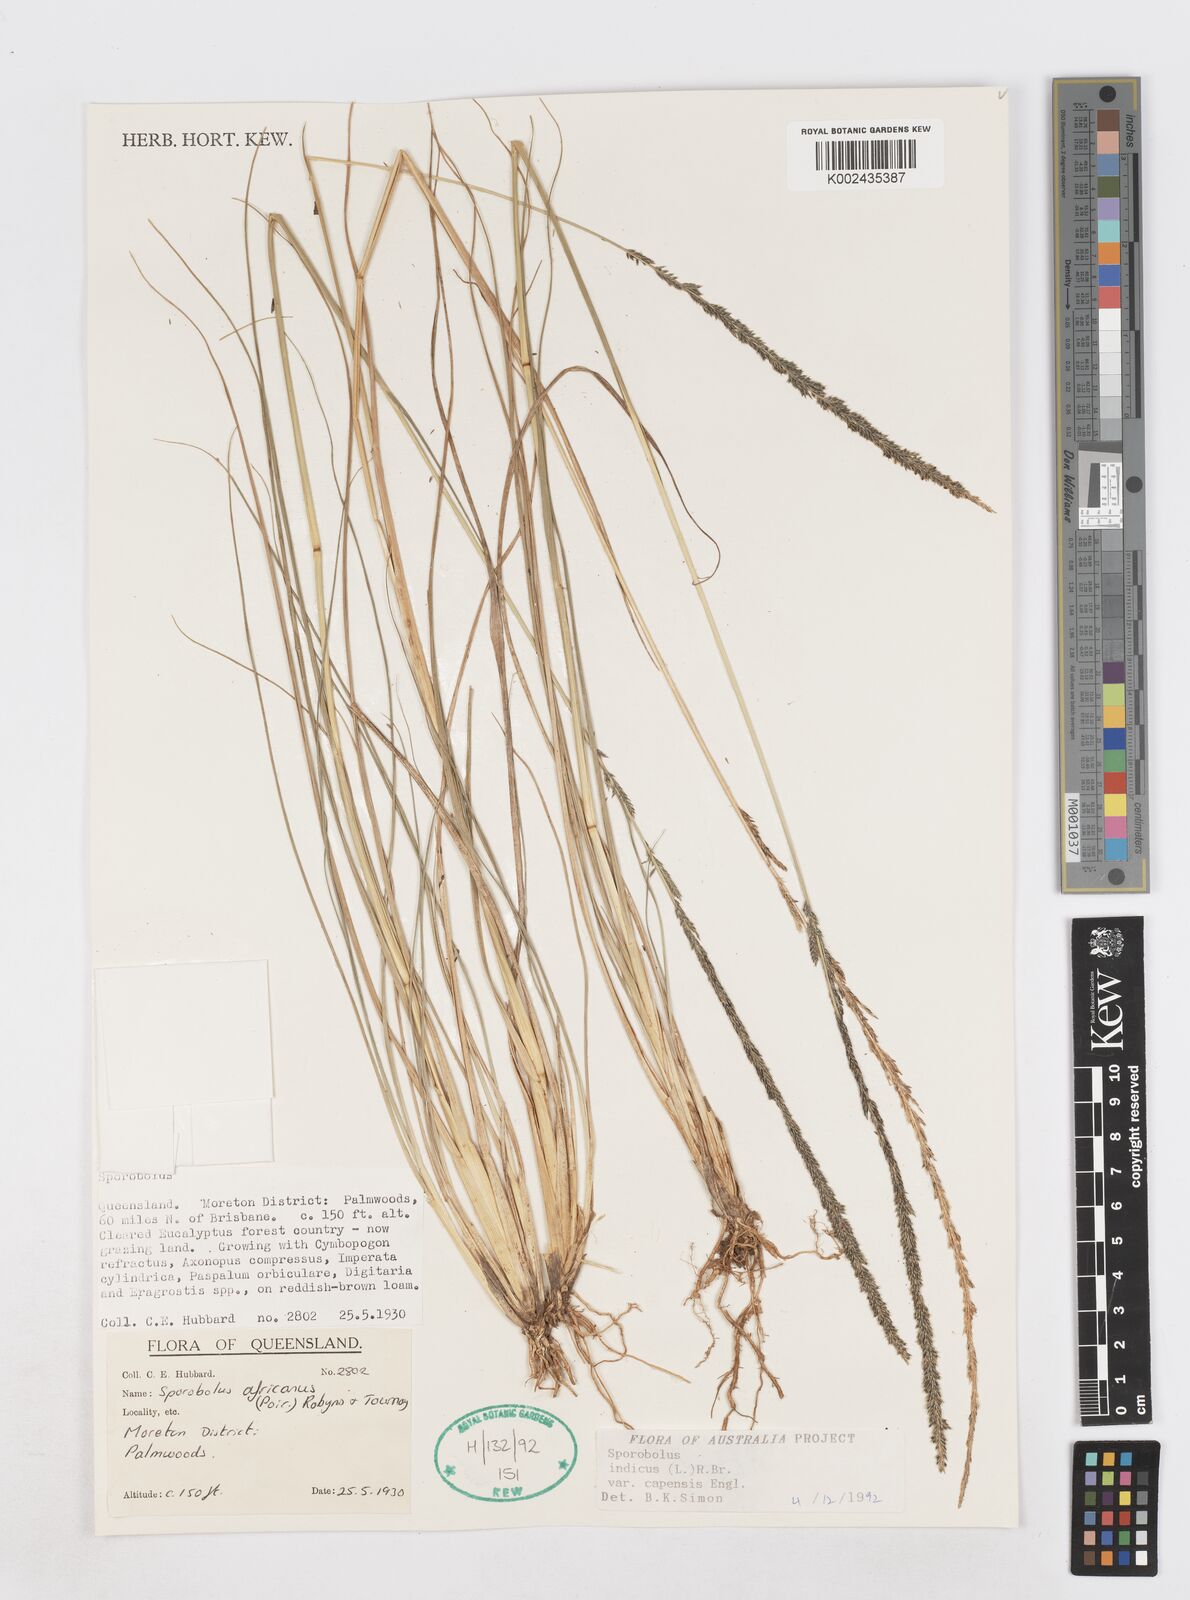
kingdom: Plantae
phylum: Tracheophyta
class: Liliopsida
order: Poales
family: Poaceae
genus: Sporobolus
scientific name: Sporobolus africanus
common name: African dropseed
